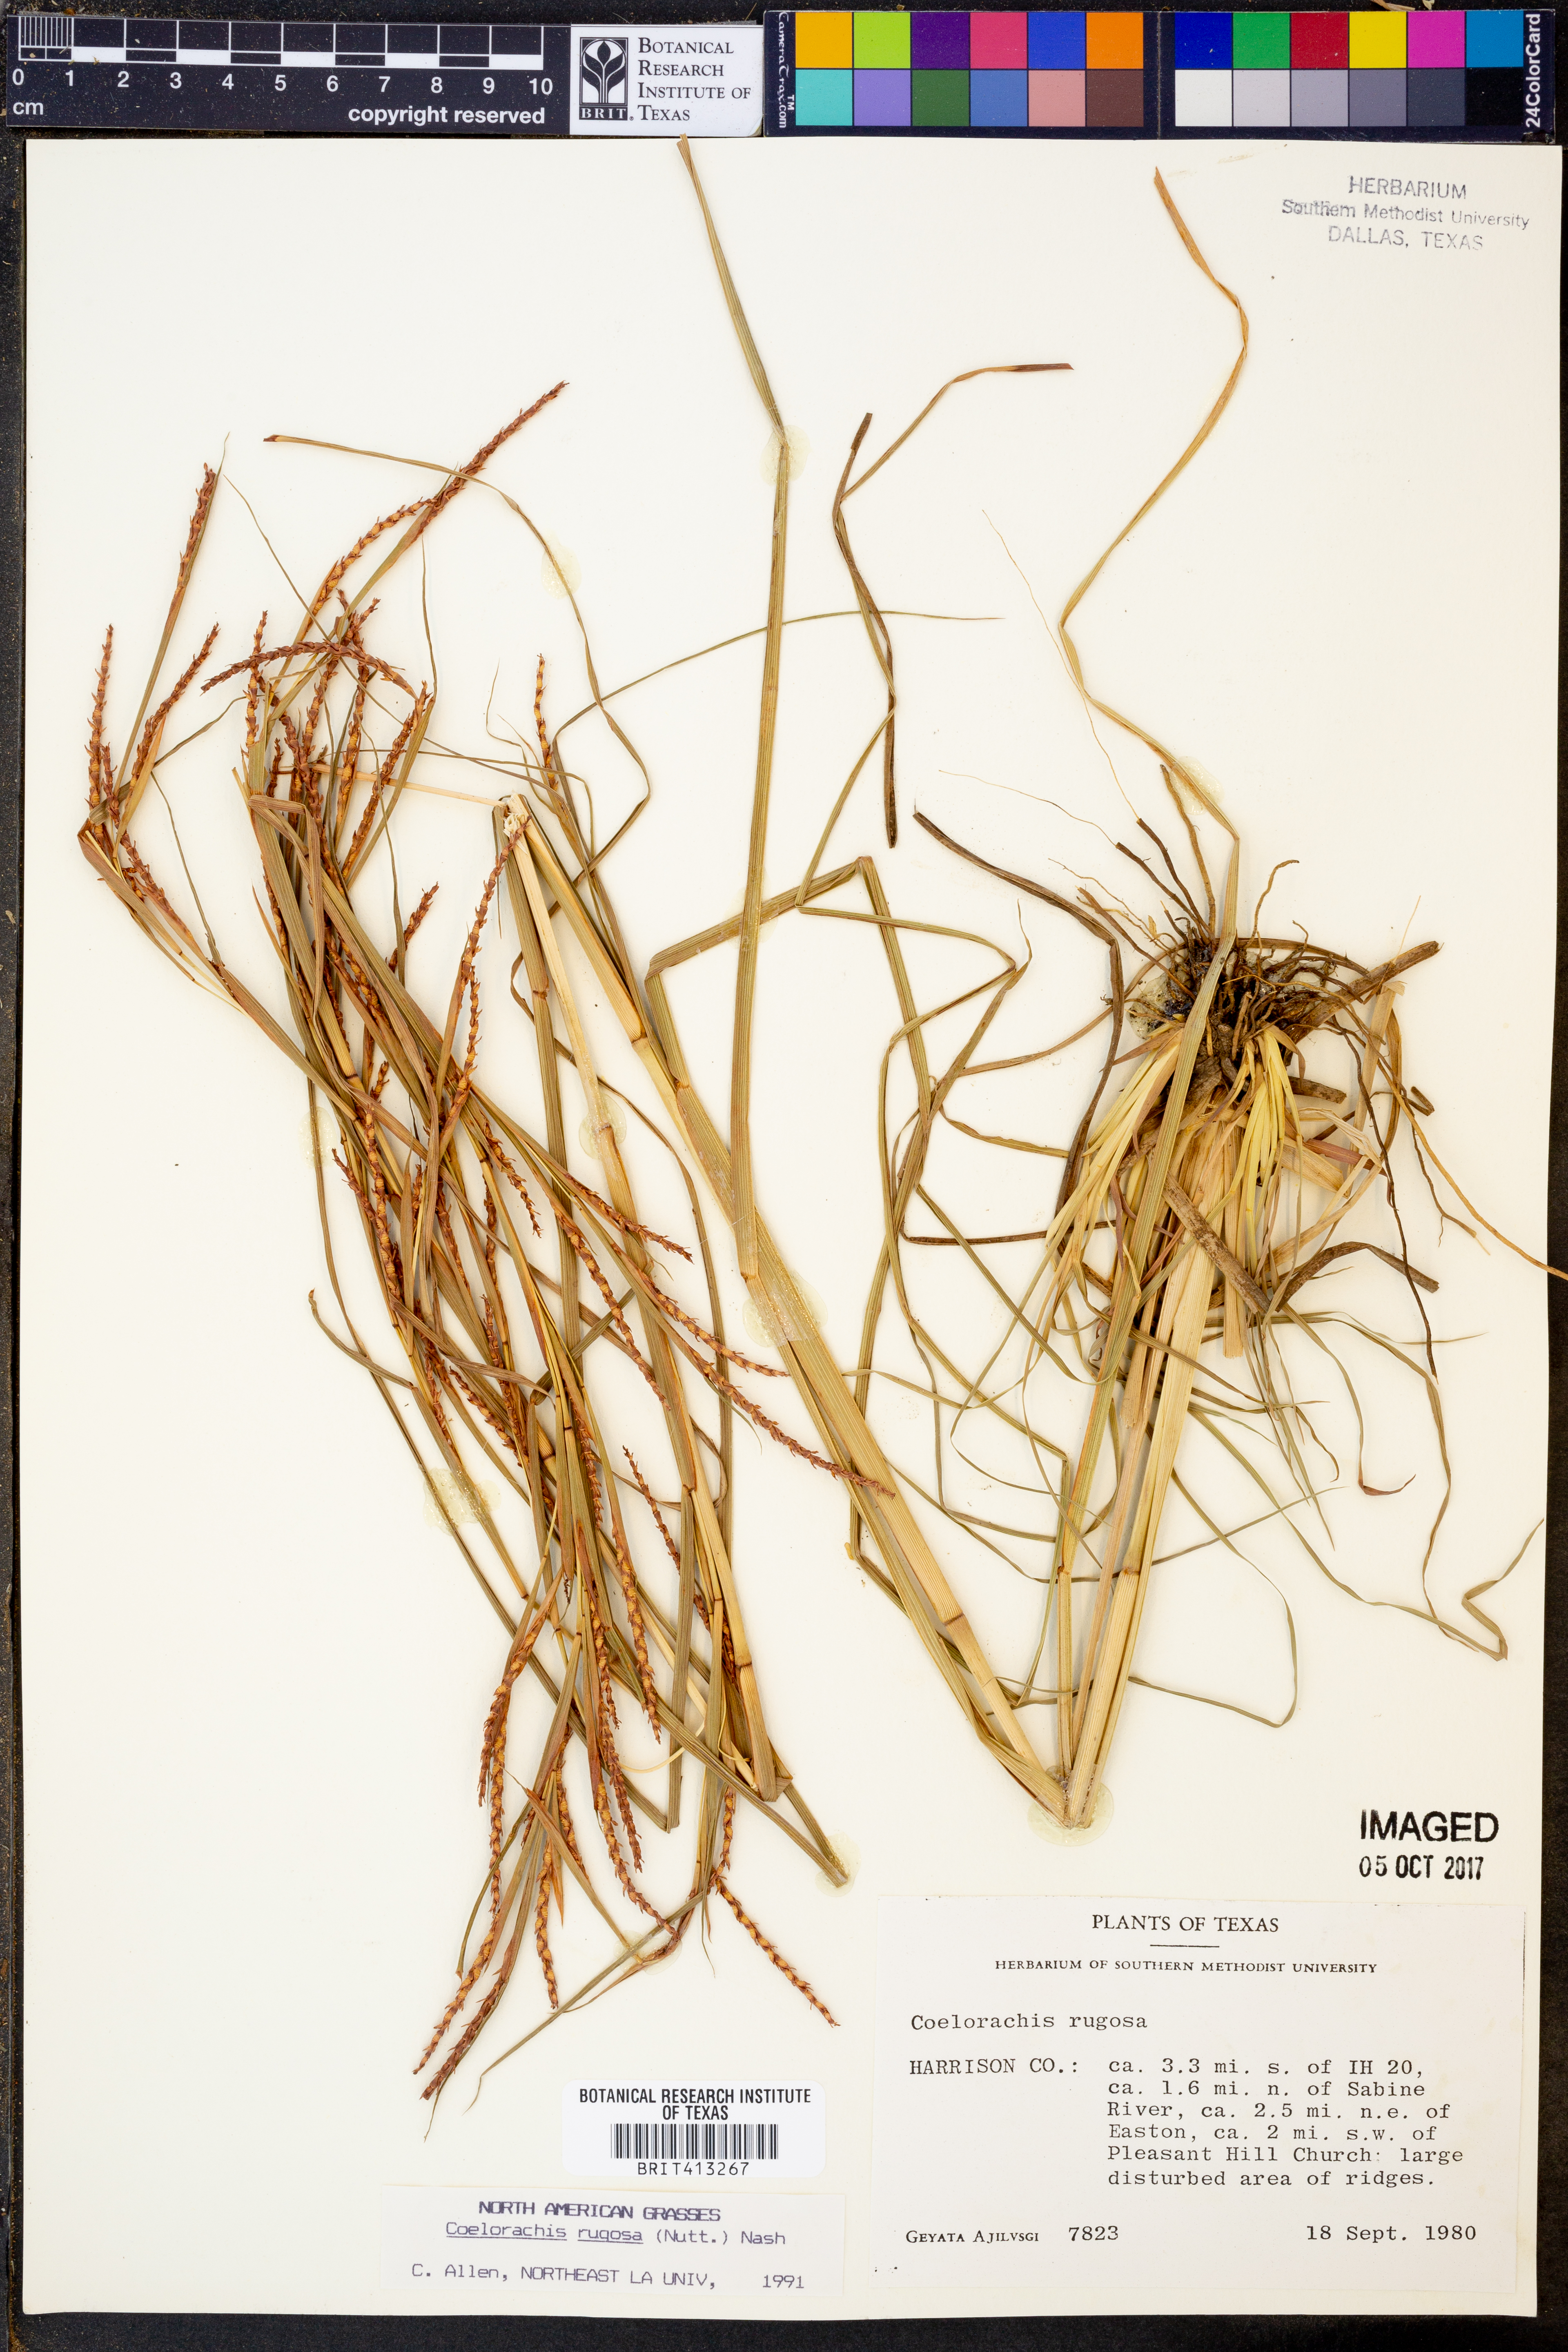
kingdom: Plantae
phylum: Tracheophyta
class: Liliopsida
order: Poales
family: Poaceae
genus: Rottboellia
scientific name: Rottboellia rugosa
